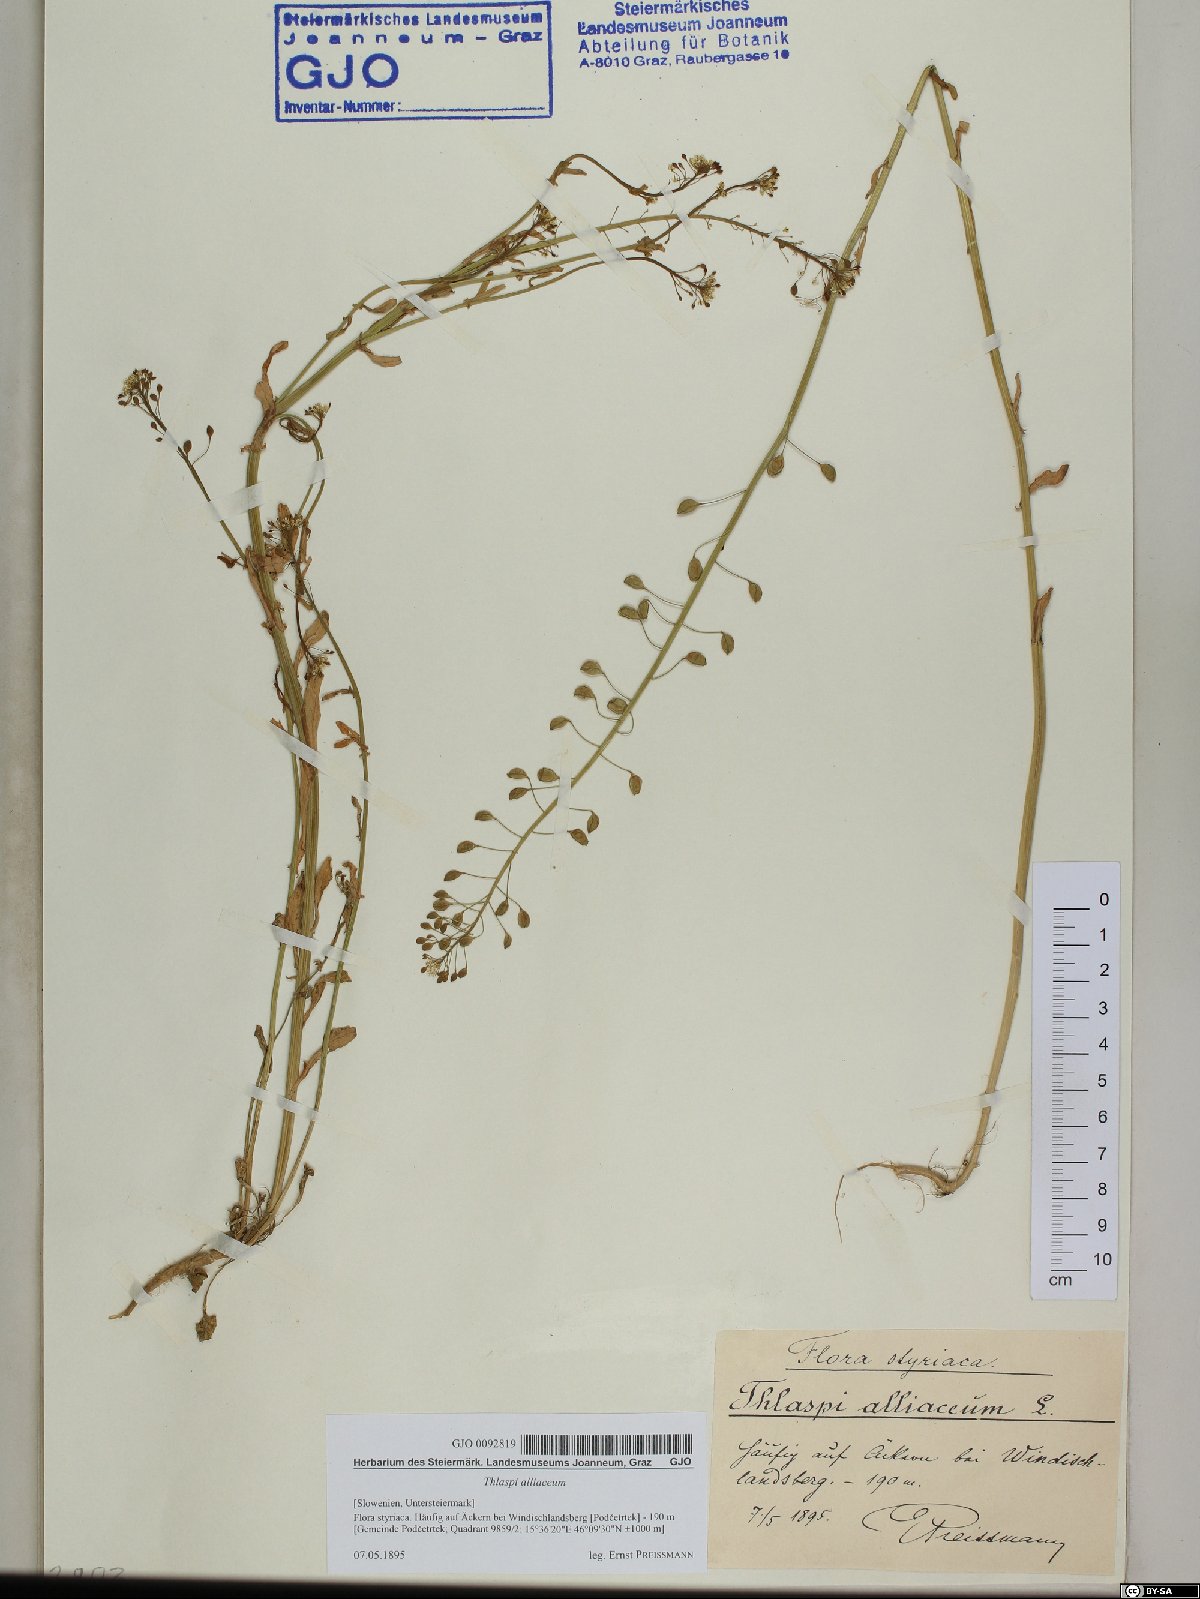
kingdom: Plantae
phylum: Tracheophyta
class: Magnoliopsida
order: Brassicales
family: Brassicaceae
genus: Mummenhoffia
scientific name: Mummenhoffia alliacea
